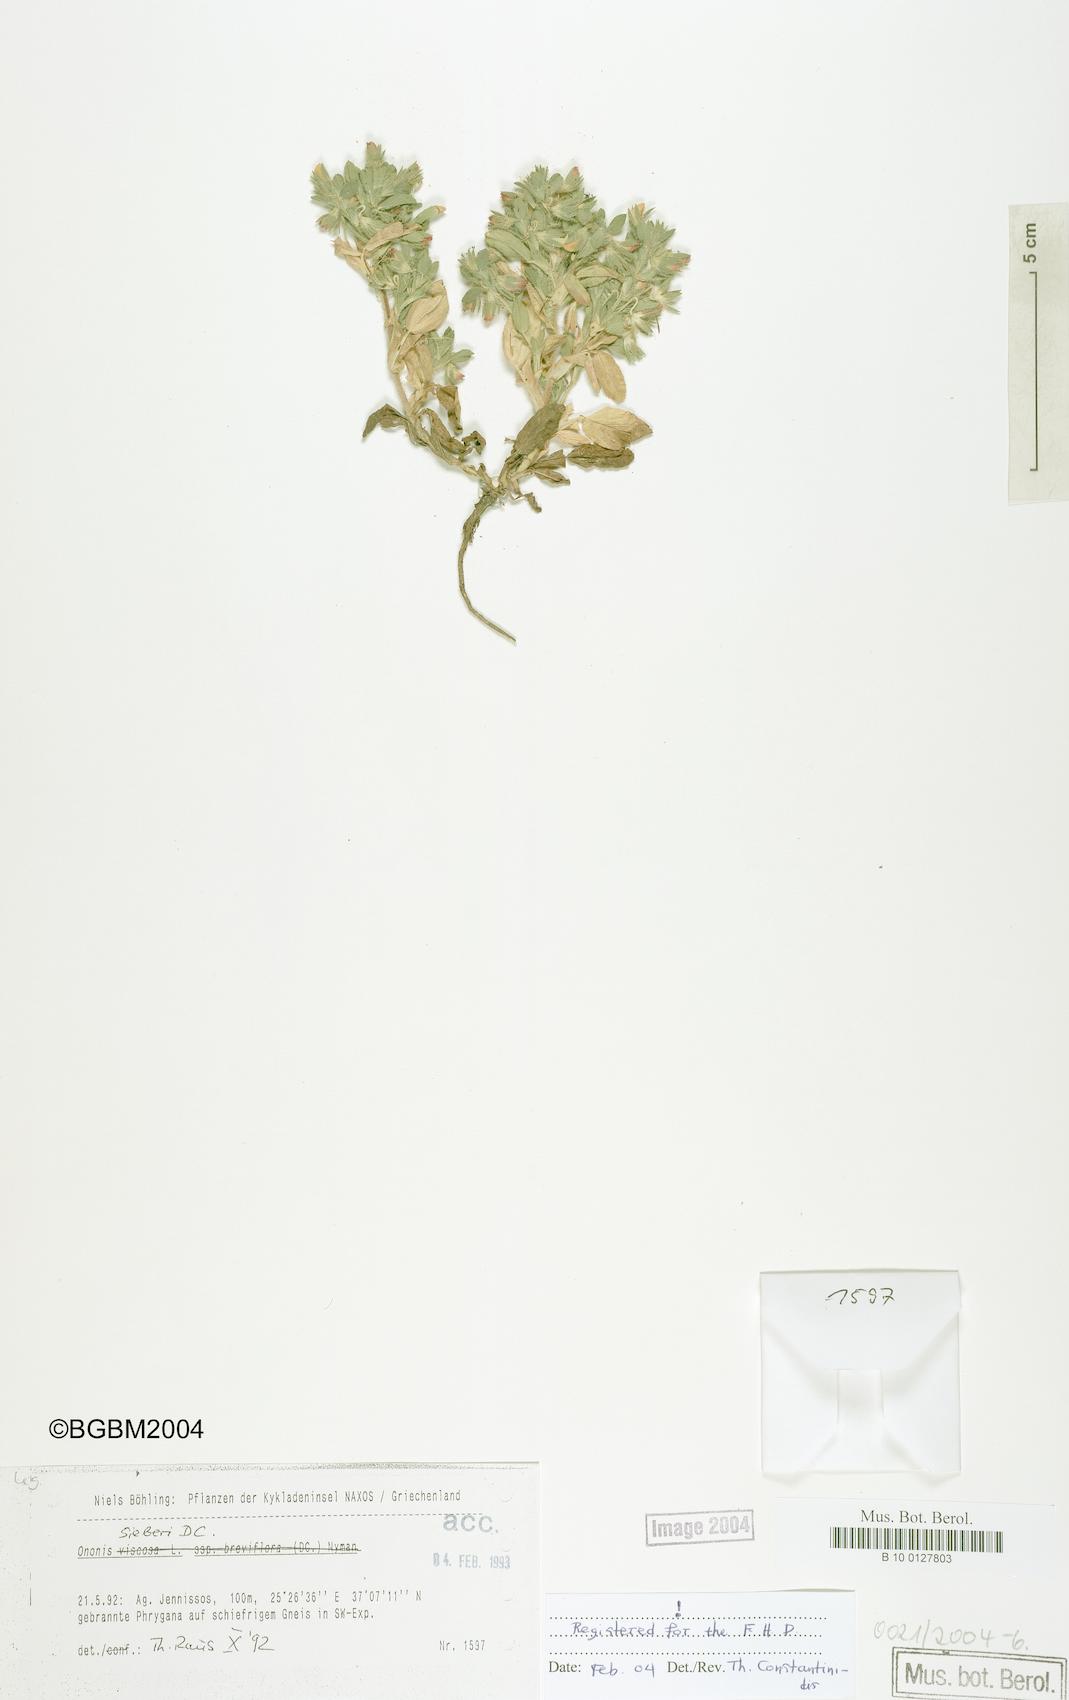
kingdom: Plantae
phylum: Tracheophyta
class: Magnoliopsida
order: Fabales
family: Fabaceae
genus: Ononis
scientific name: Ononis sieberi
